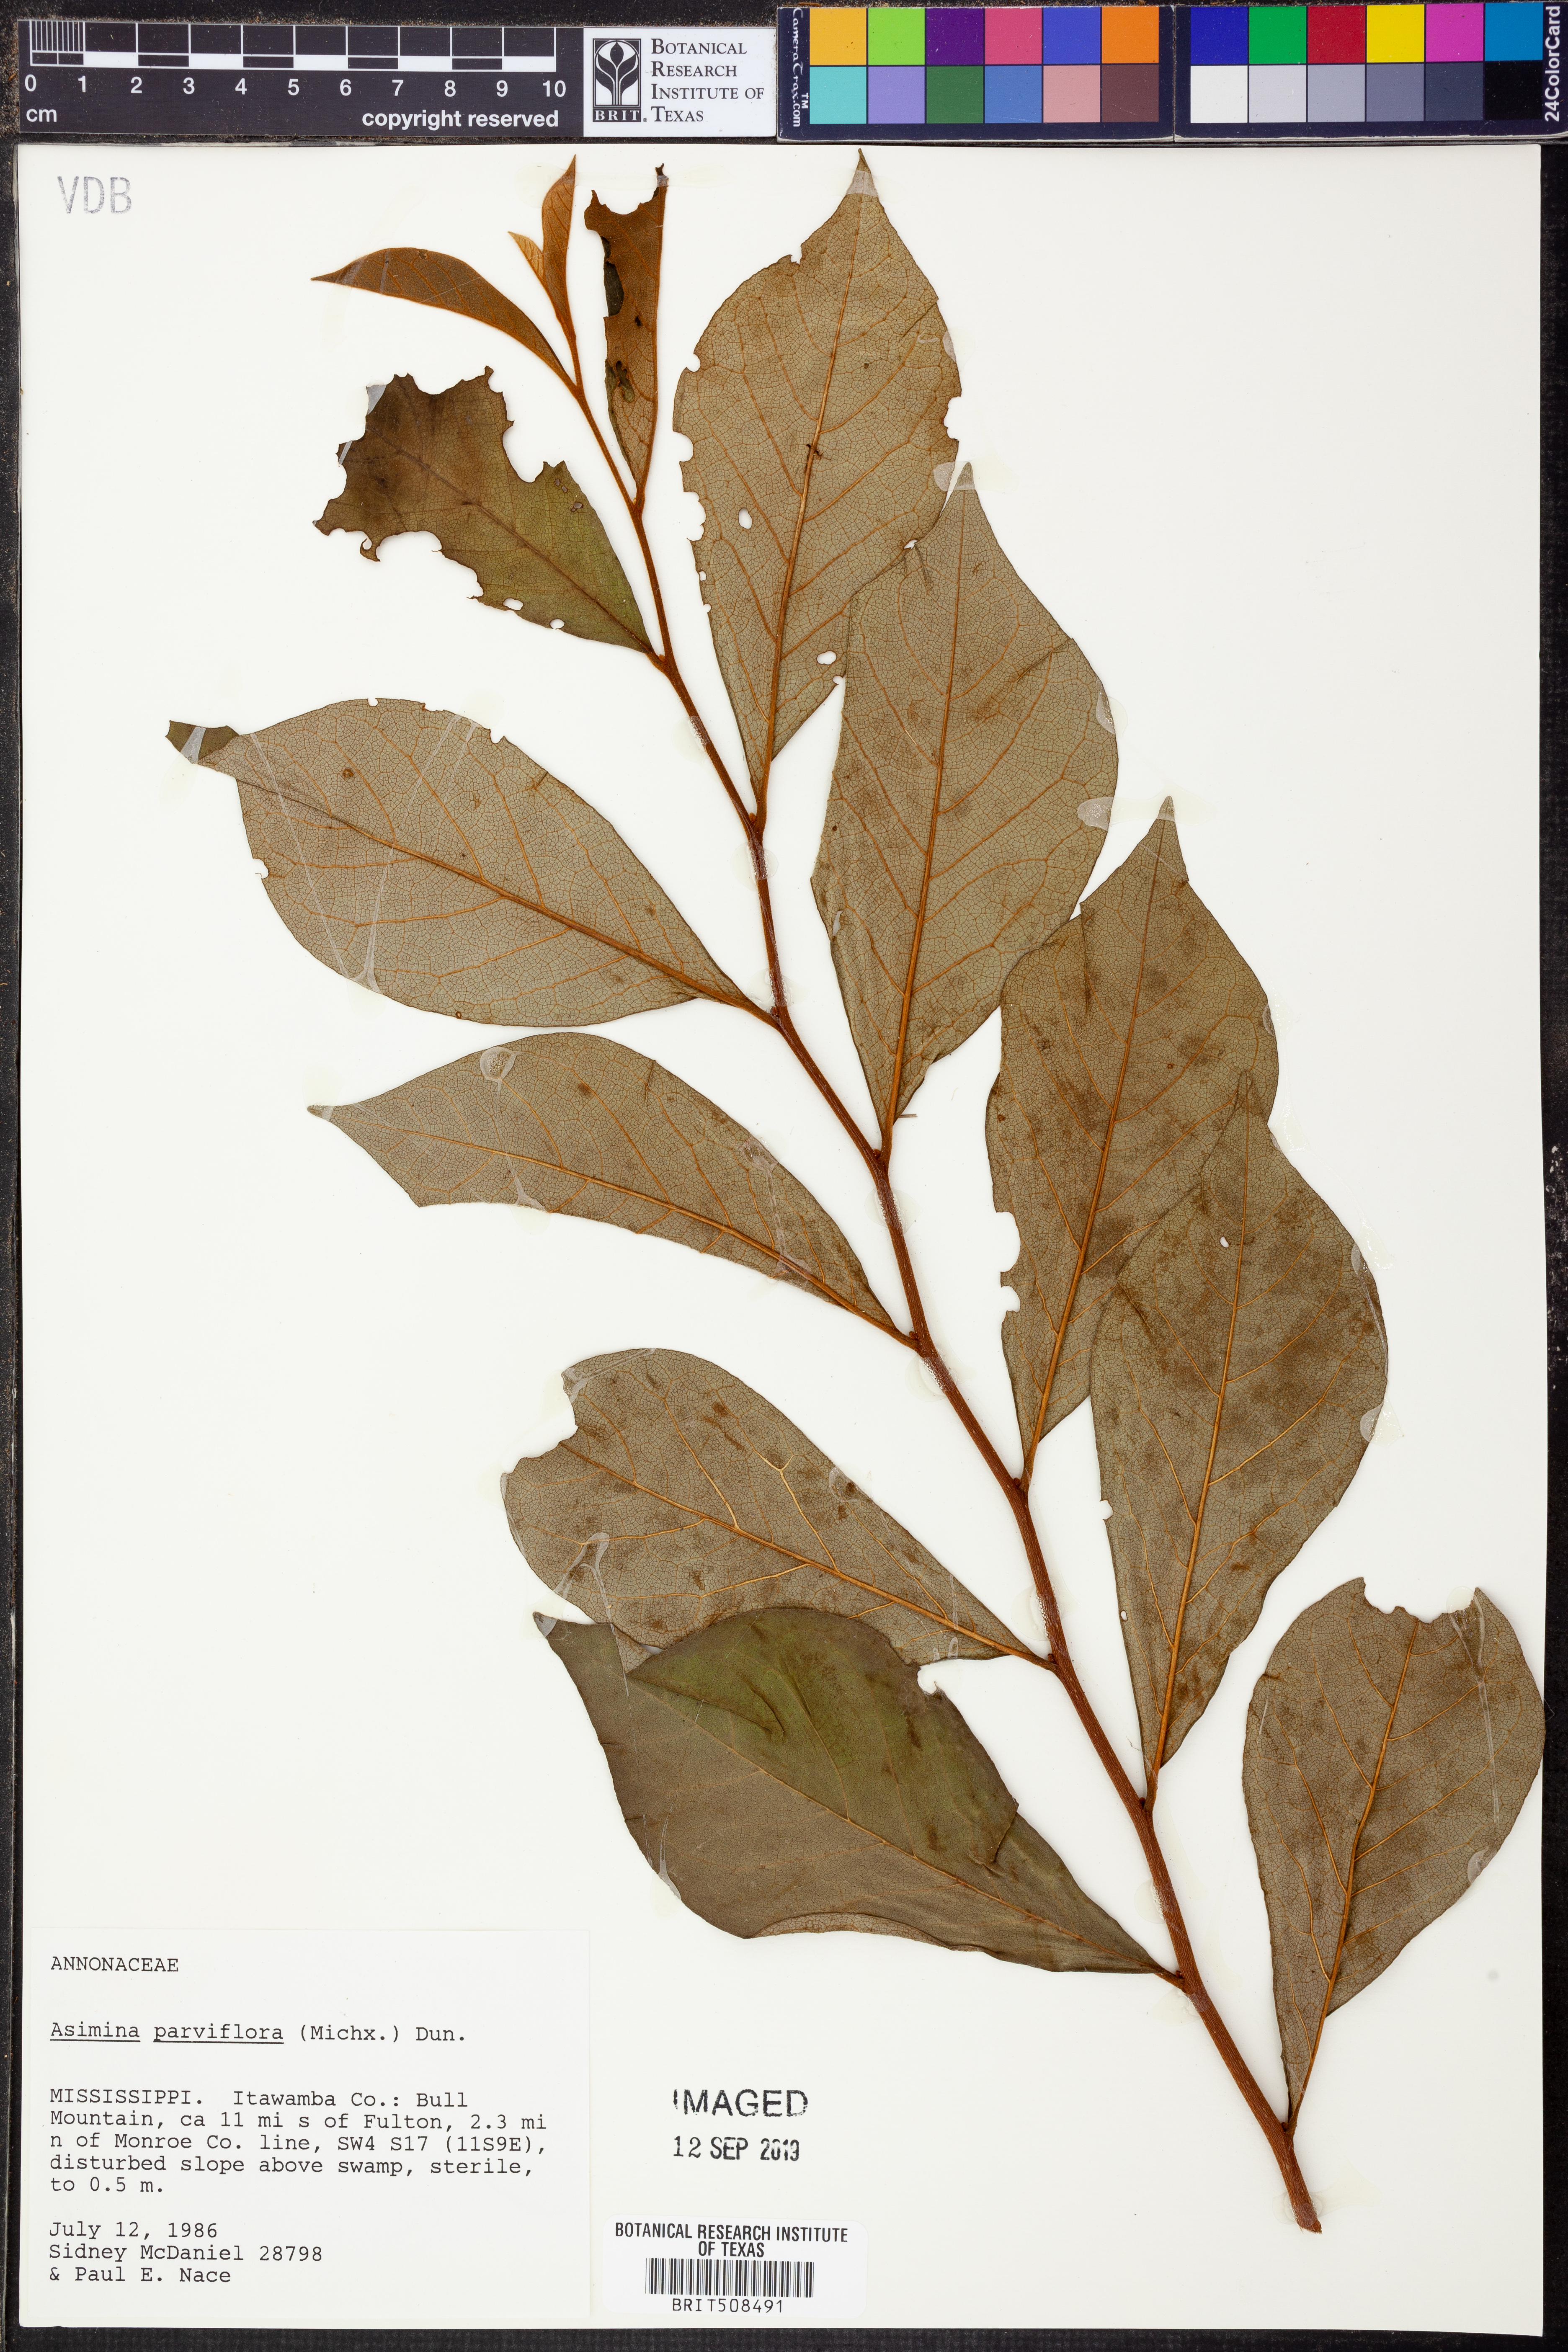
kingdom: Plantae
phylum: Tracheophyta
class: Magnoliopsida
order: Magnoliales
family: Annonaceae
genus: Asimina
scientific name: Asimina parviflora
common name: Dwarf pawpaw
